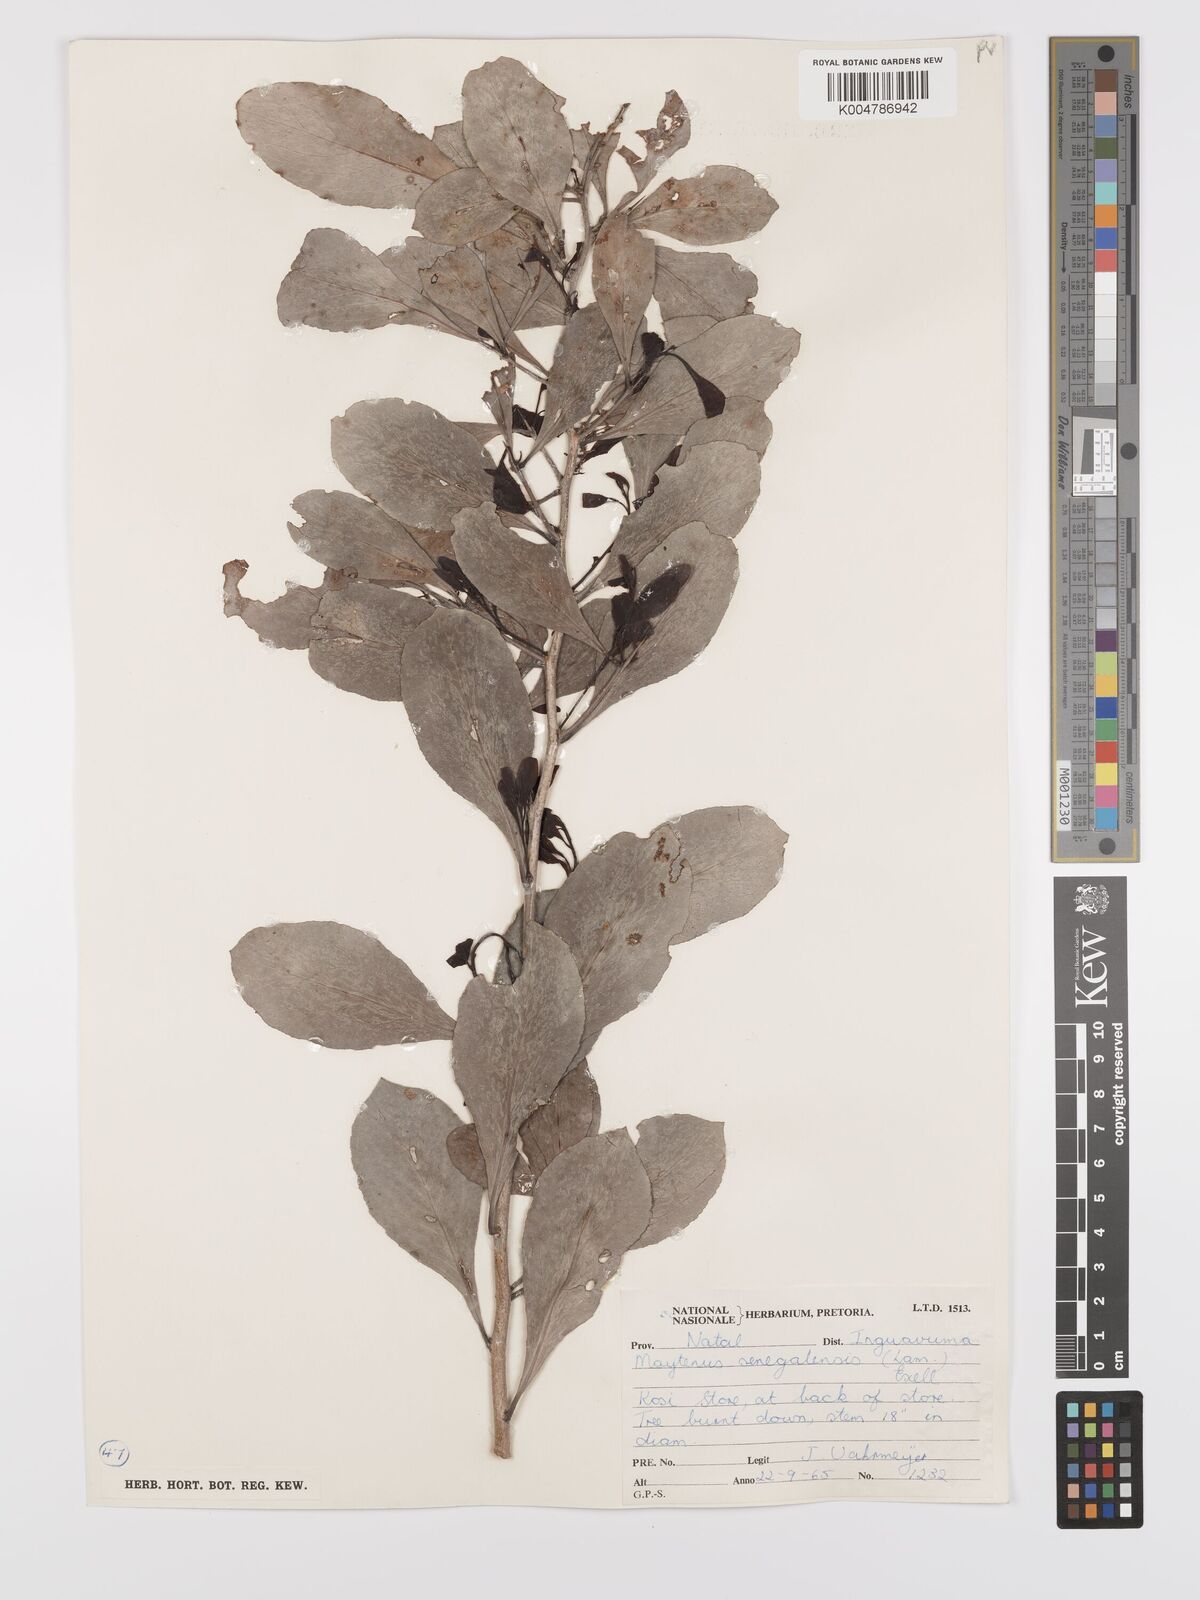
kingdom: Plantae
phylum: Tracheophyta
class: Magnoliopsida
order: Celastrales
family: Celastraceae
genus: Gymnosporia
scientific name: Gymnosporia senegalensis
